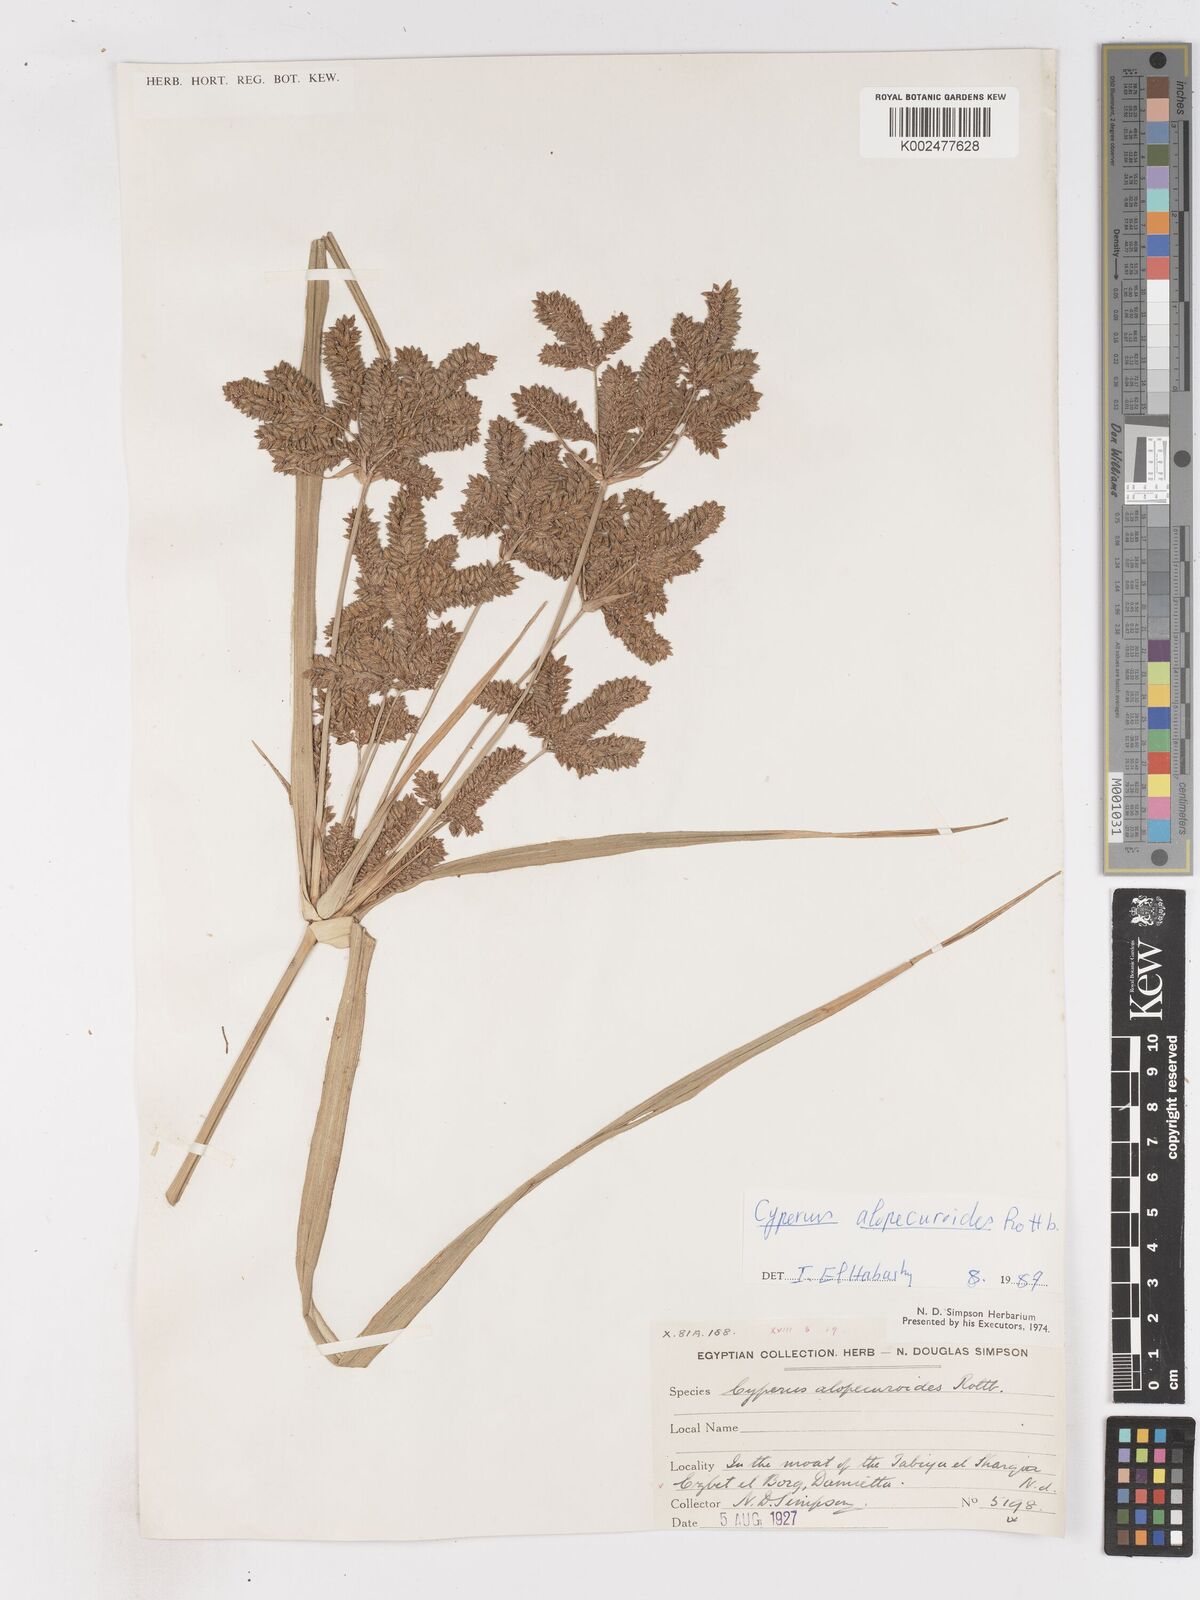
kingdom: Plantae
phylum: Tracheophyta
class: Liliopsida
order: Poales
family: Cyperaceae
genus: Cyperus
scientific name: Cyperus
